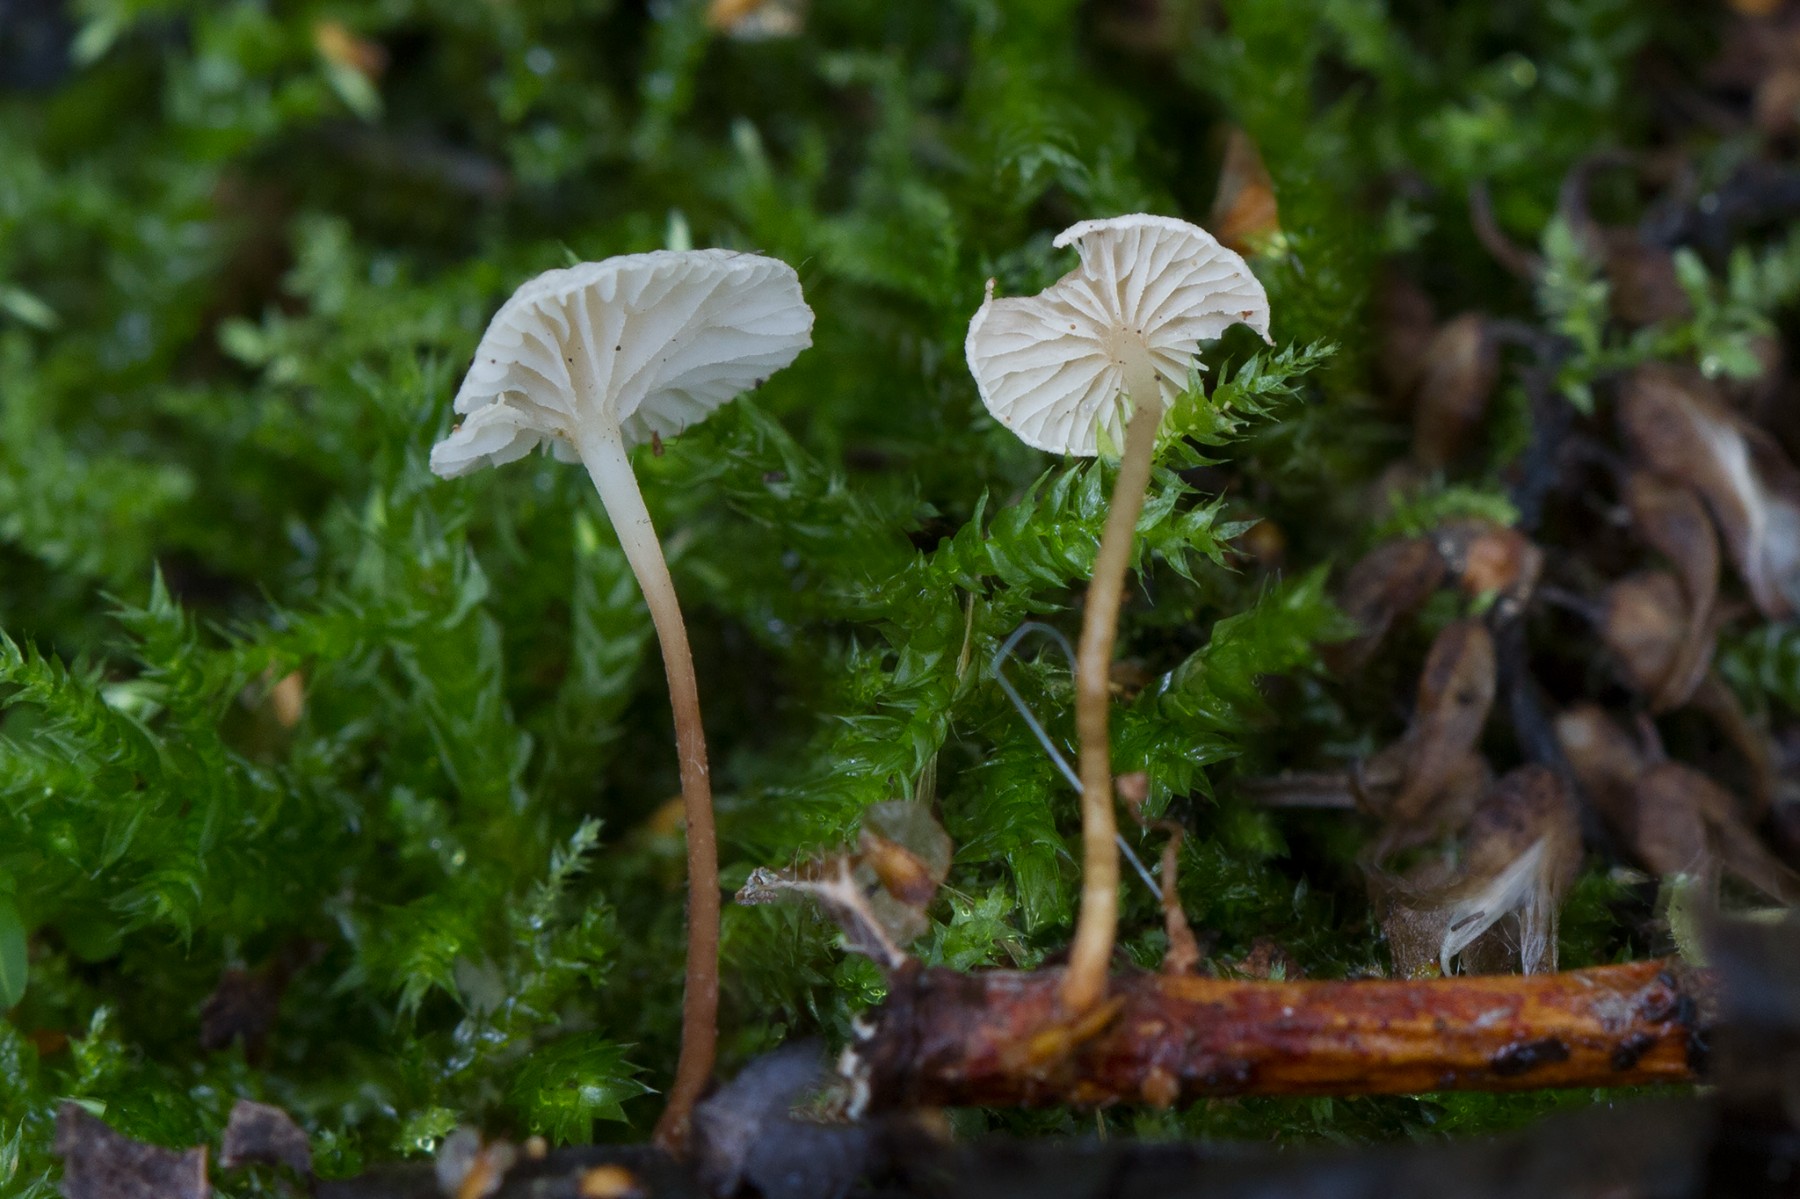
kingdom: Fungi
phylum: Basidiomycota
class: Agaricomycetes
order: Agaricales
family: Omphalotaceae
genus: Collybiopsis
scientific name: Collybiopsis vaillantii
